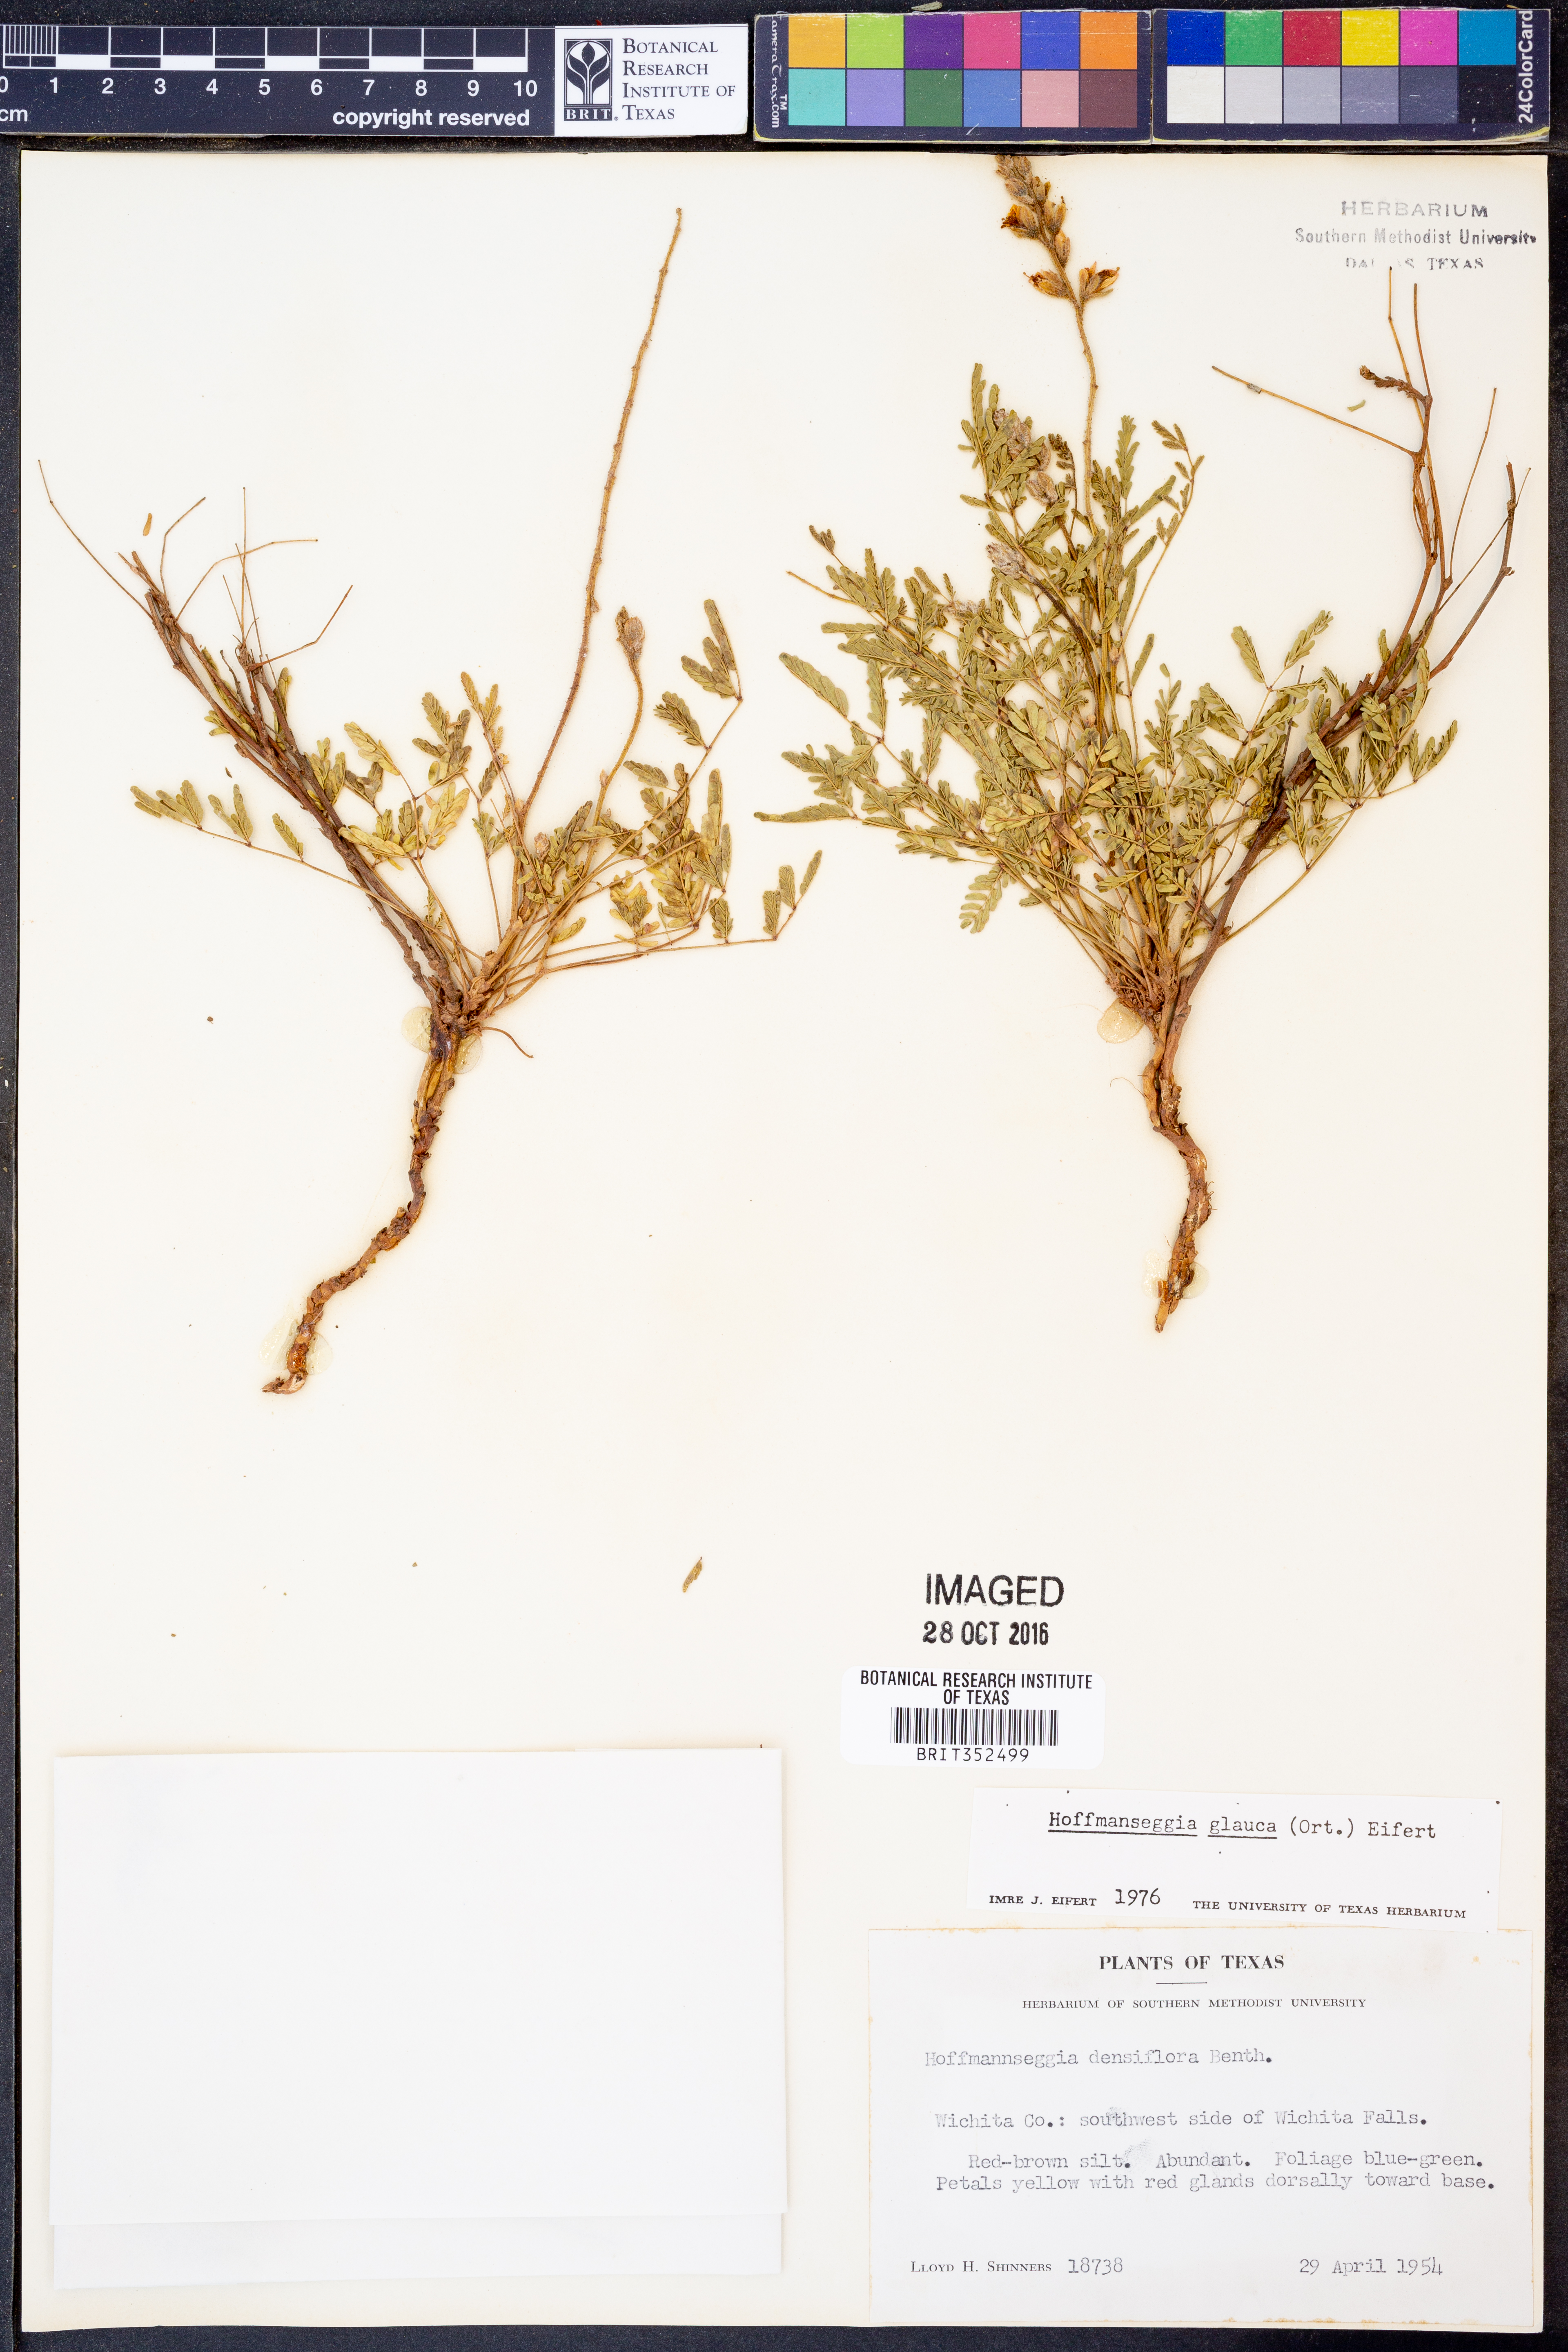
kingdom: Plantae
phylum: Tracheophyta
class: Magnoliopsida
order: Fabales
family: Fabaceae
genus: Hoffmannseggia
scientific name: Hoffmannseggia glauca
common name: Pignut
